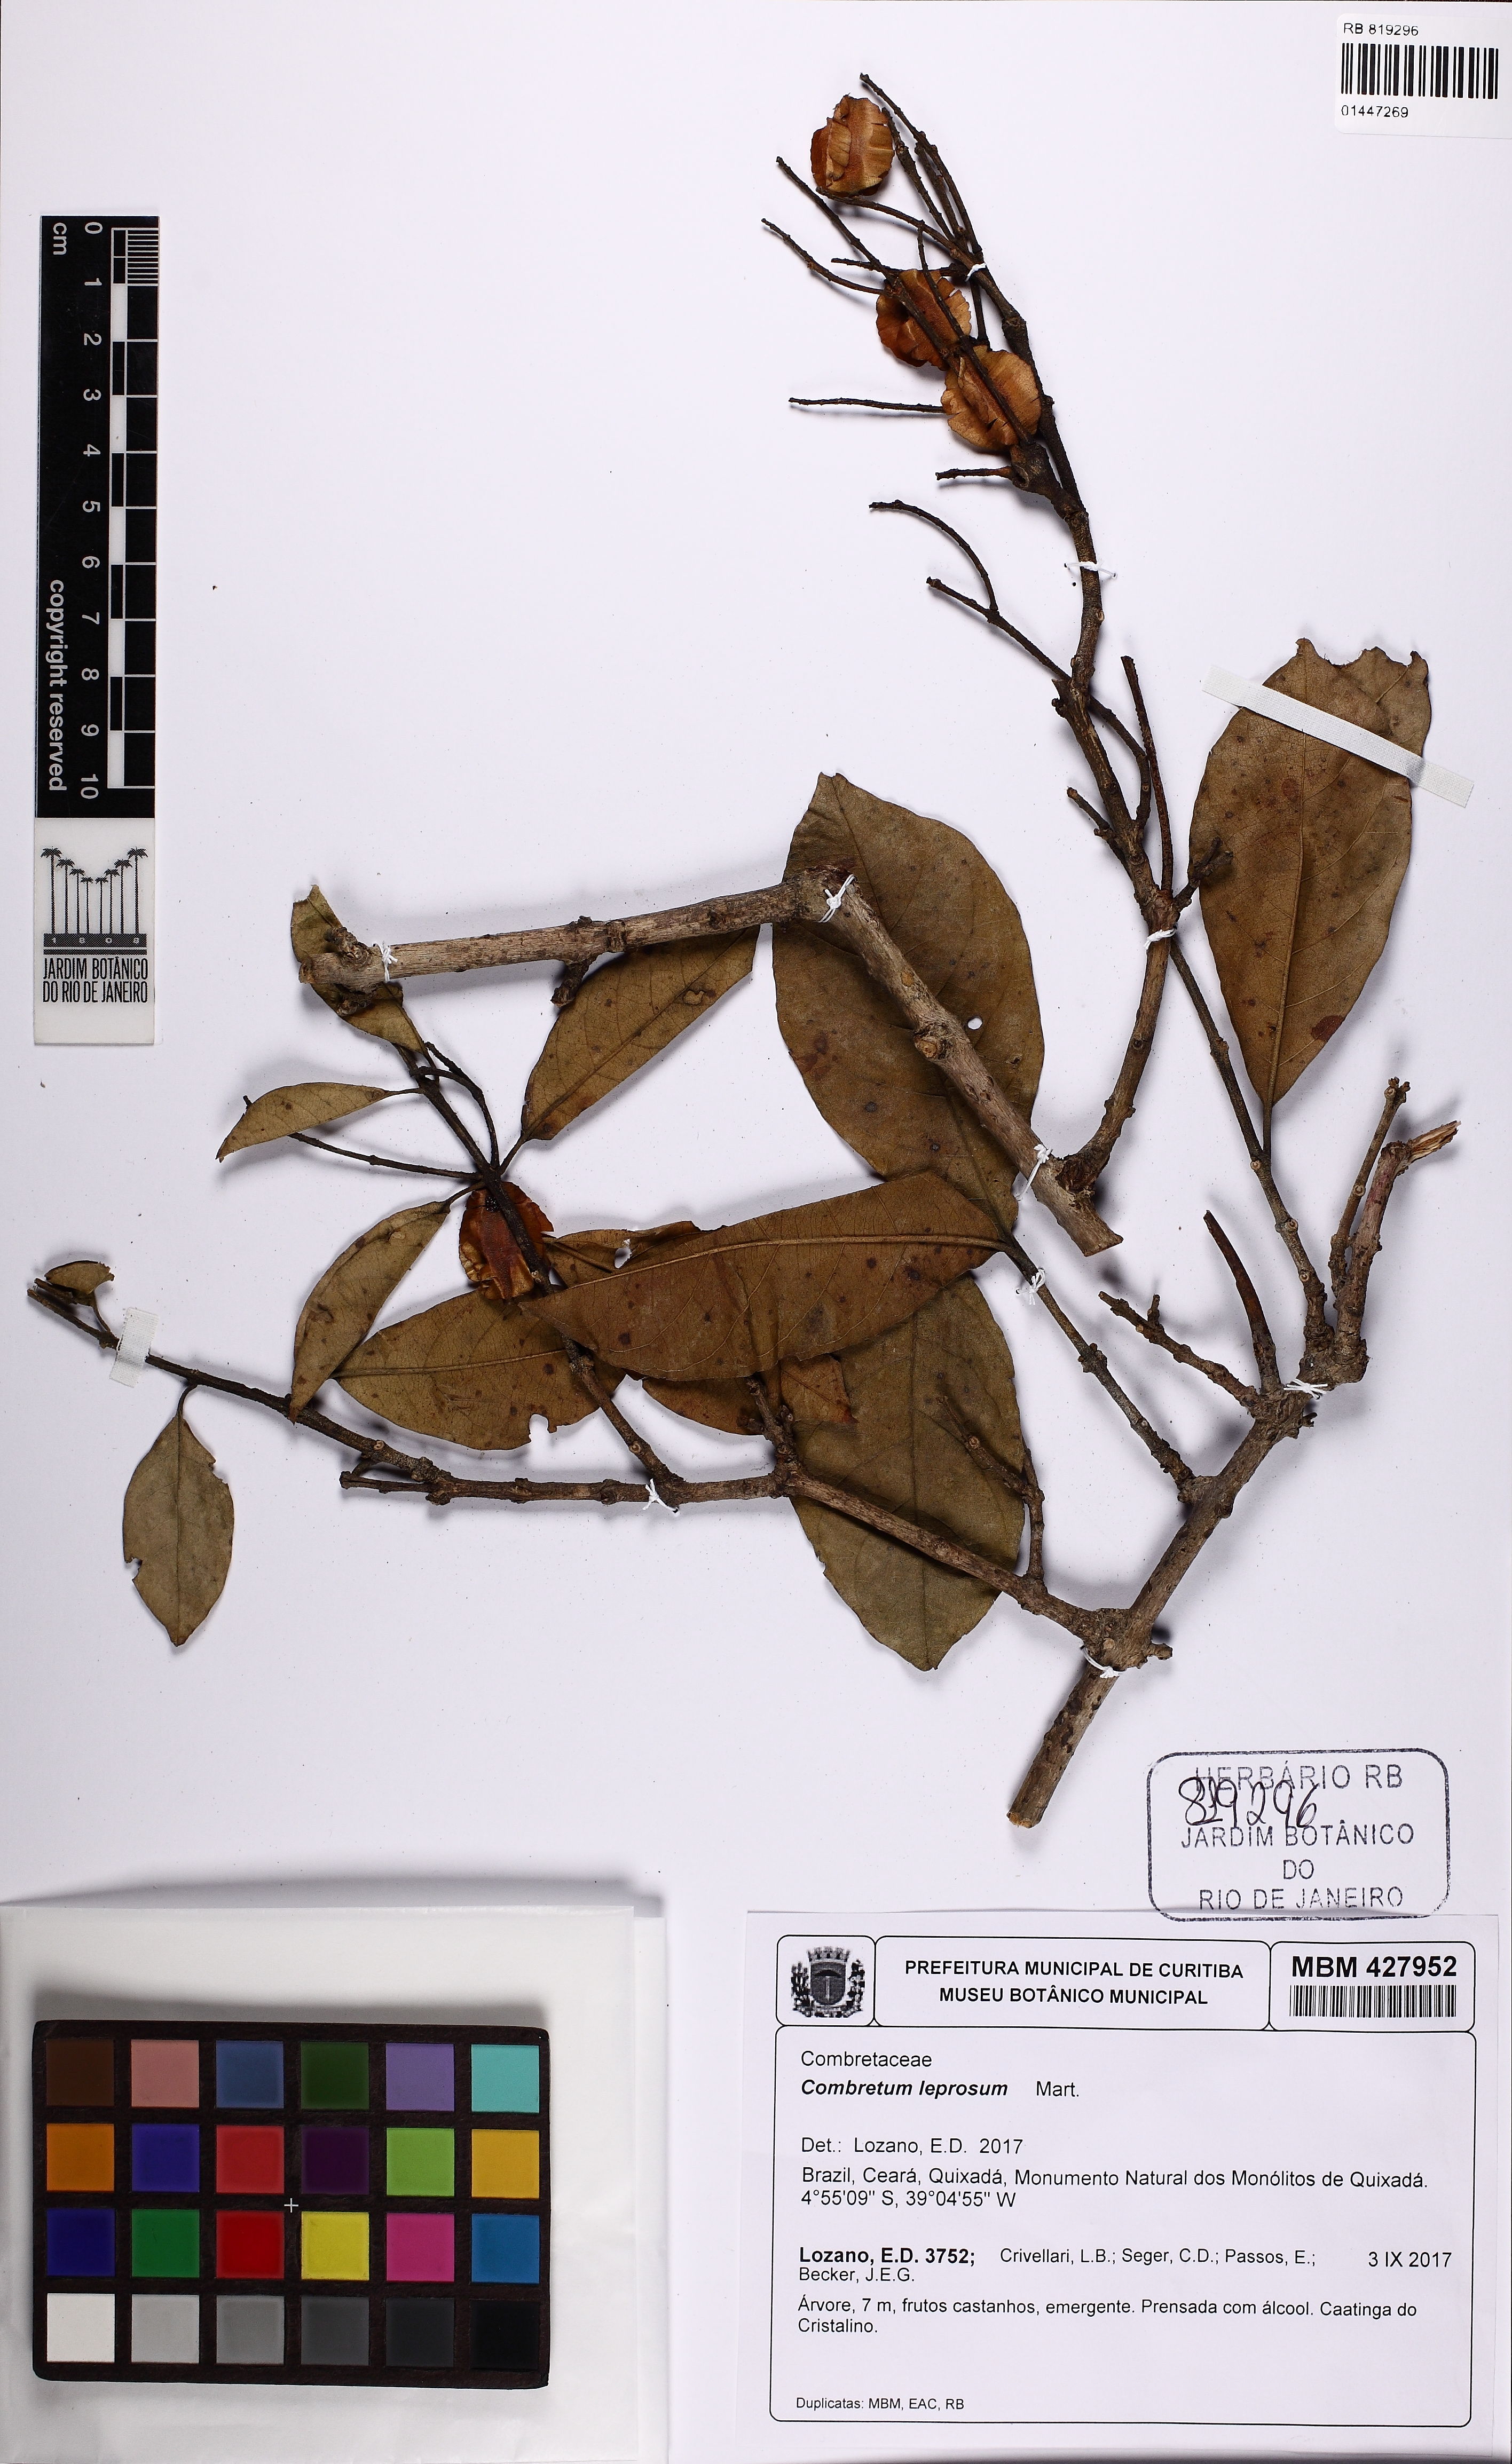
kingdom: Plantae
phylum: Tracheophyta
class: Magnoliopsida
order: Myrtales
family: Combretaceae
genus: Combretum
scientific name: Combretum leprosum
